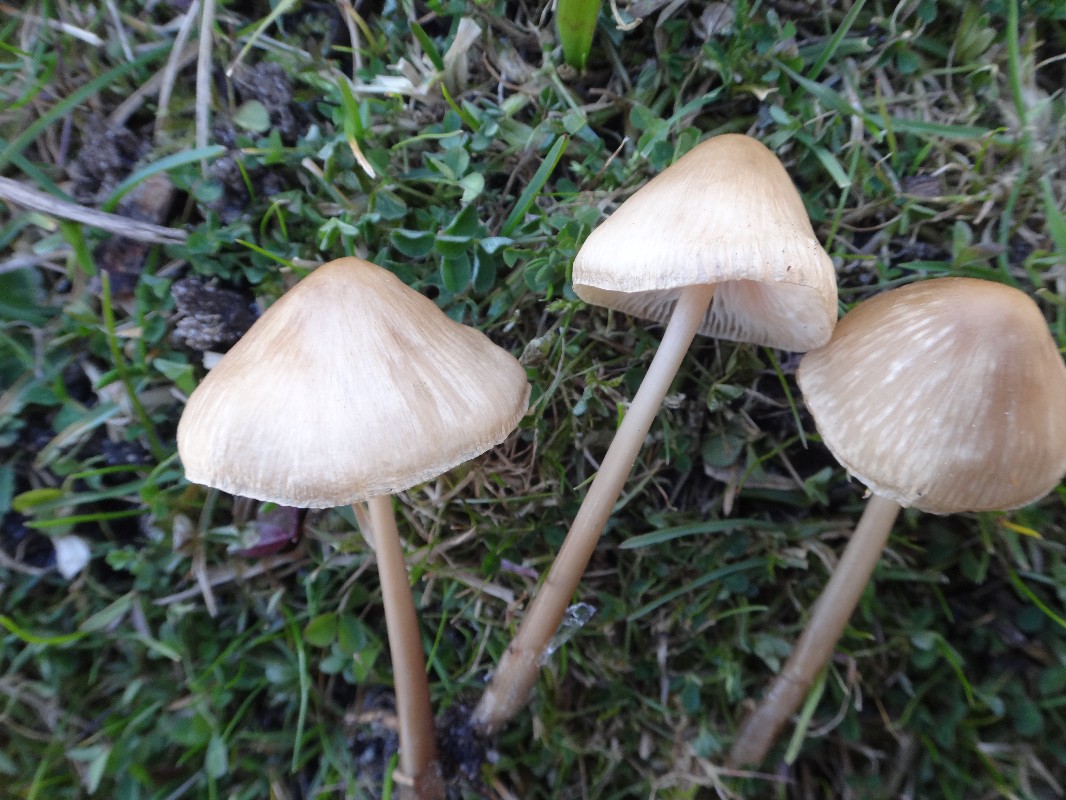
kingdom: Fungi
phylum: Basidiomycota
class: Agaricomycetes
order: Agaricales
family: Mycenaceae
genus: Mycena
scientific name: Mycena galericulata
